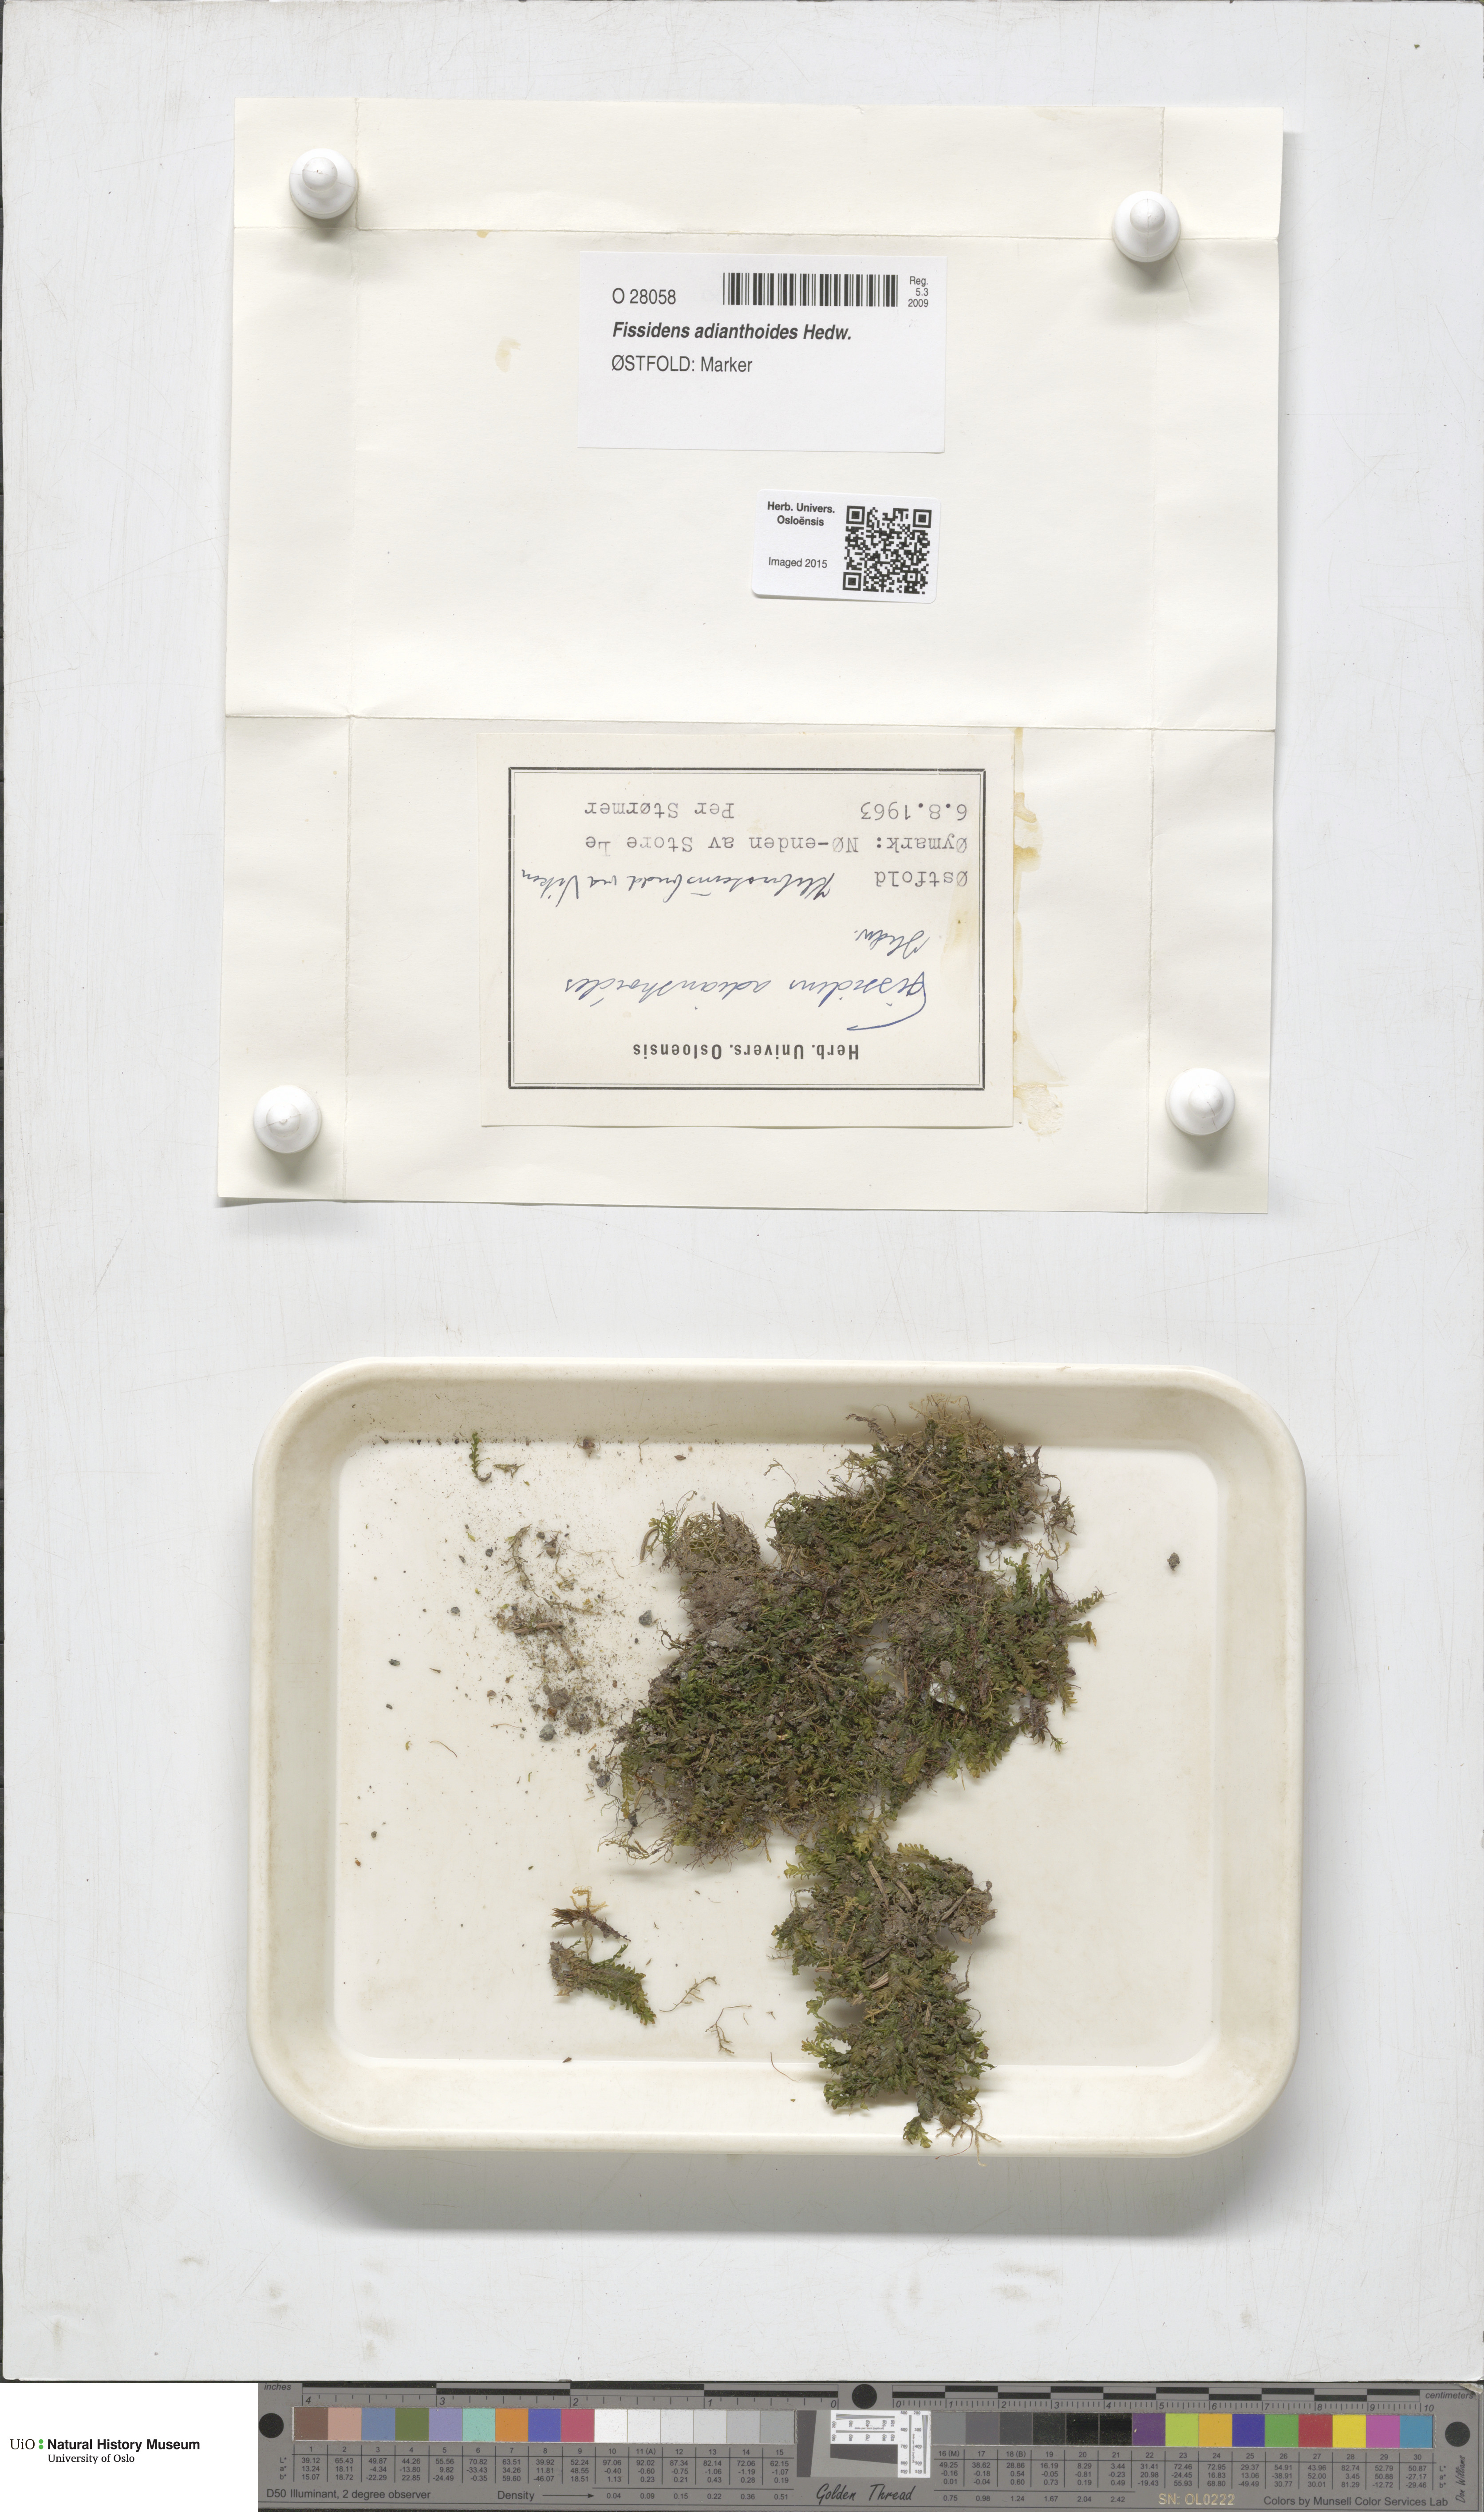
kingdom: Plantae
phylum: Bryophyta
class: Bryopsida
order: Dicranales
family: Fissidentaceae
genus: Fissidens
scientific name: Fissidens adianthoides
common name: Maidenhair pocket moss
